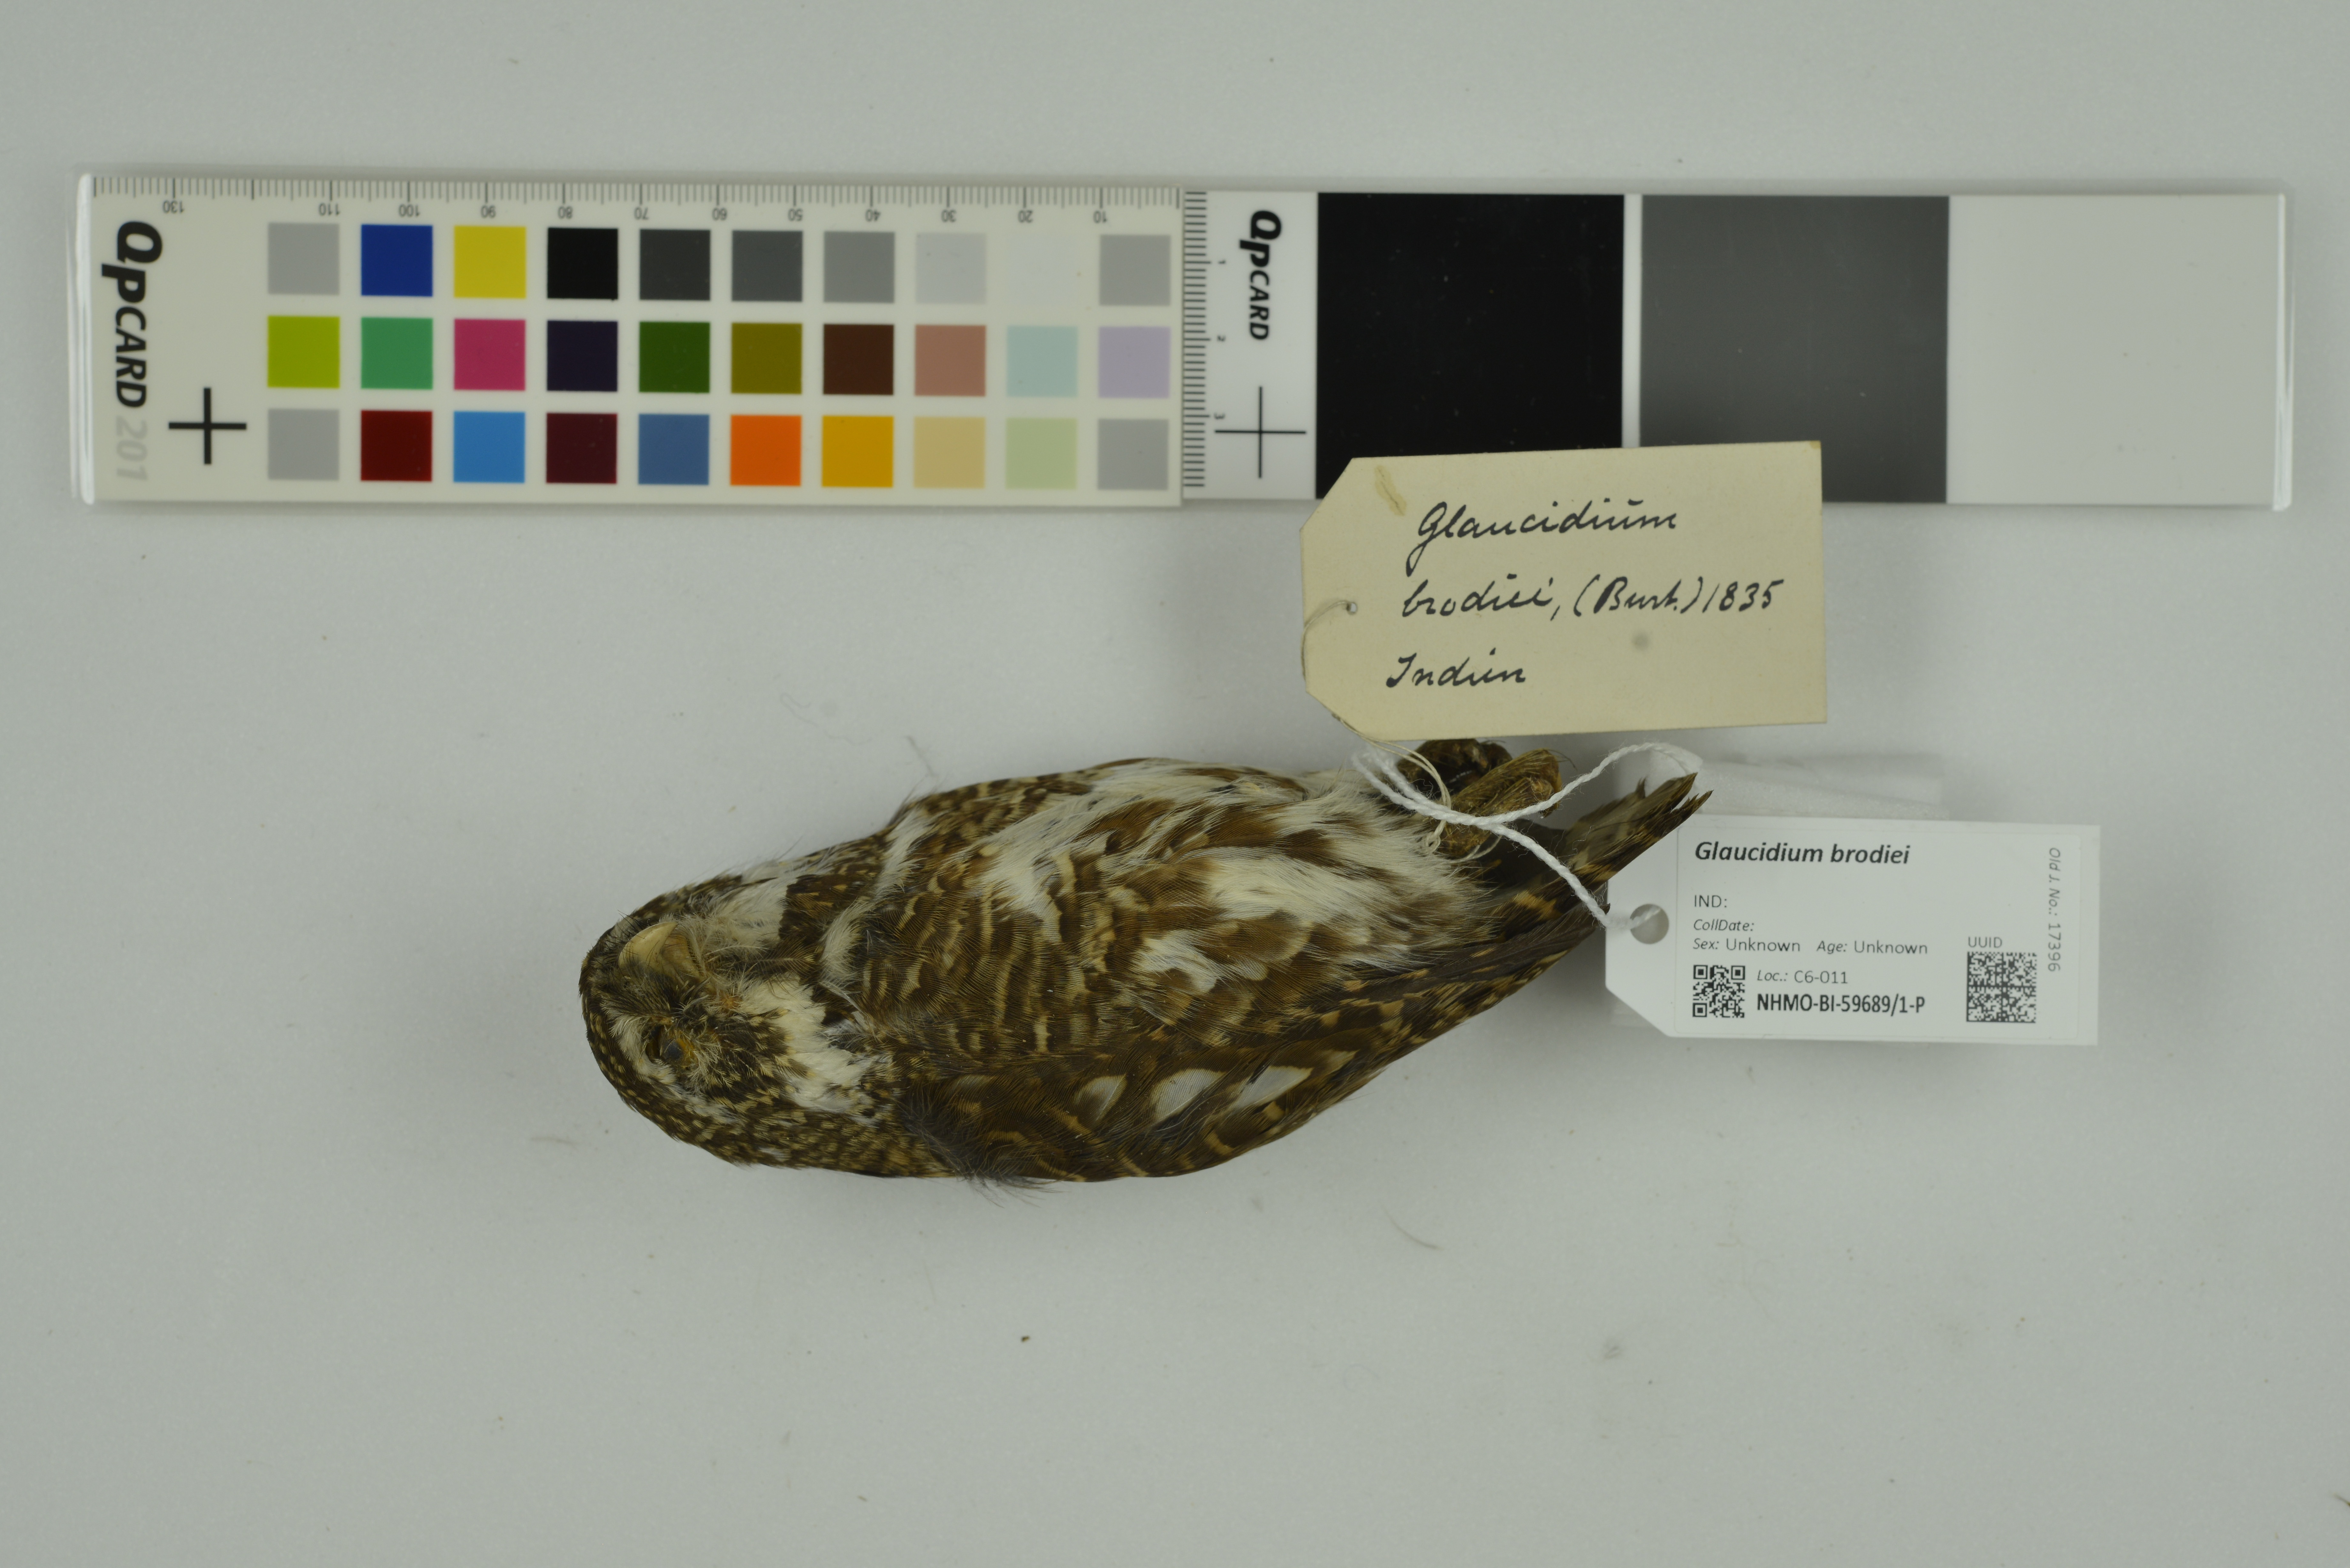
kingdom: Animalia
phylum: Chordata
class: Aves
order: Strigiformes
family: Strigidae
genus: Glaucidium
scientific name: Glaucidium brodiei
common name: Collared owlet
